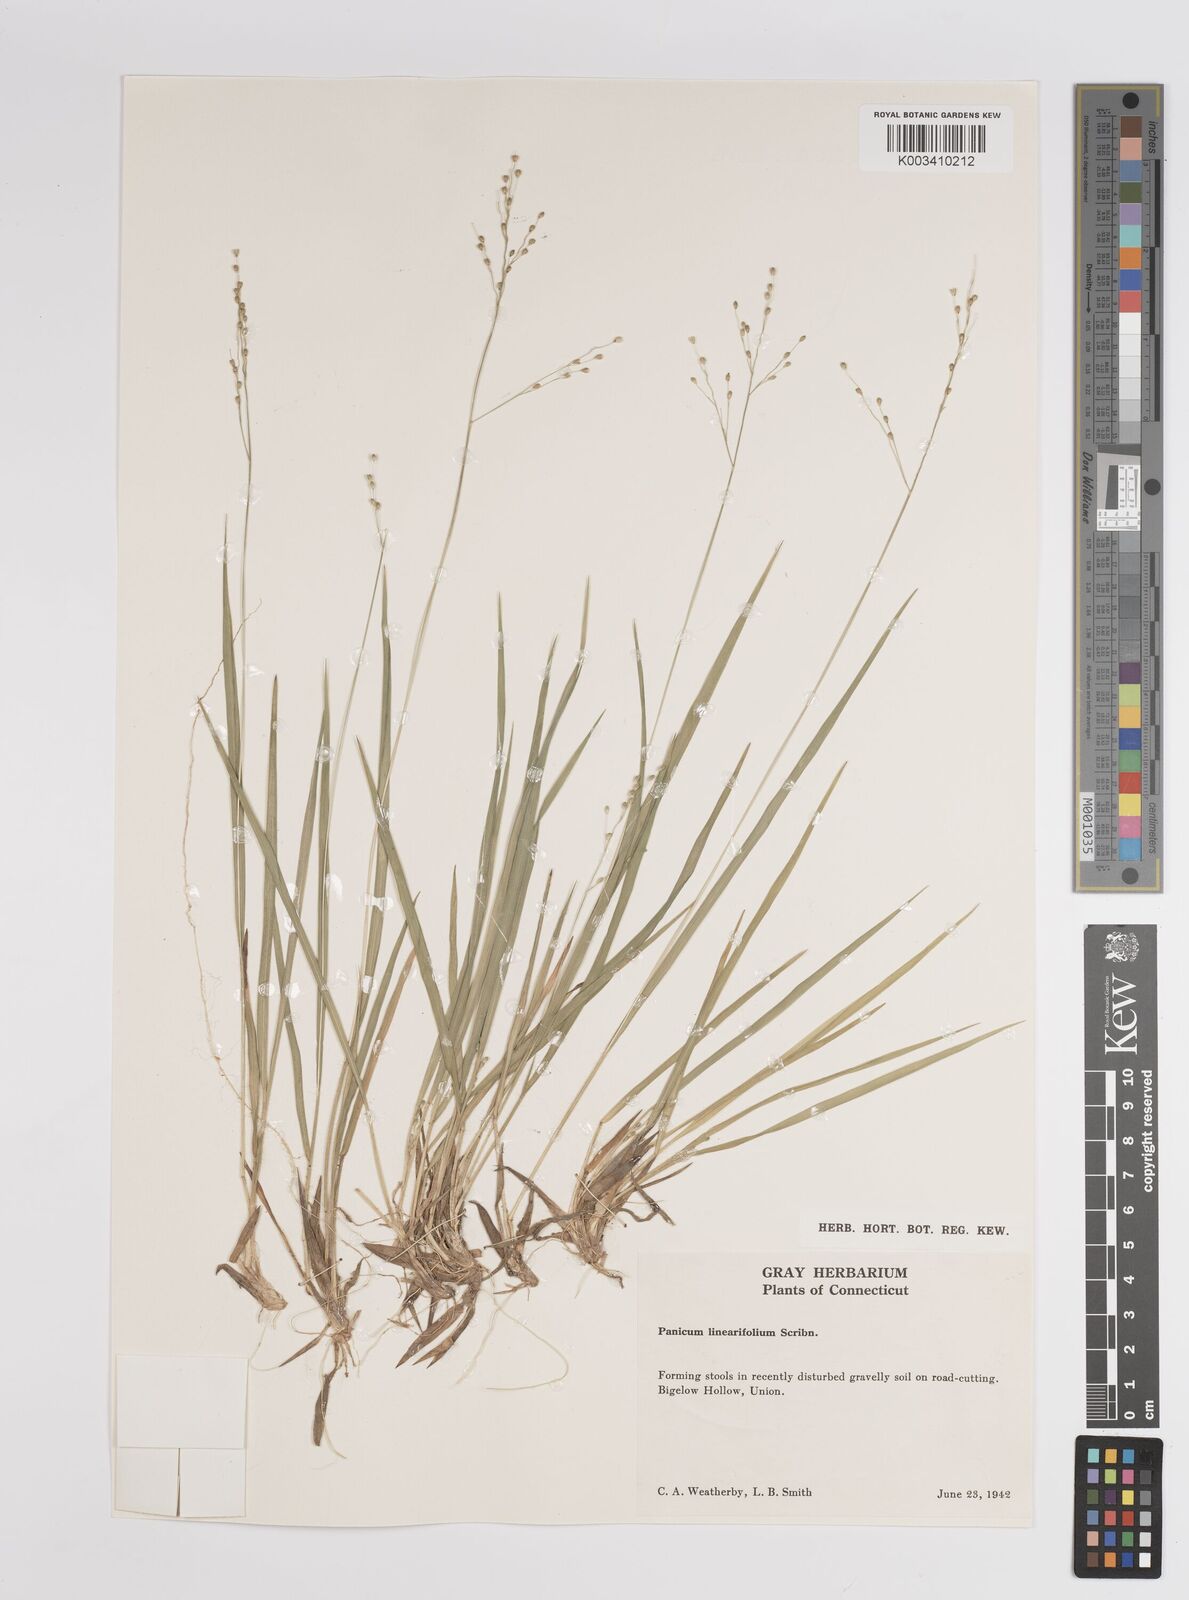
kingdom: Plantae
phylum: Tracheophyta
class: Liliopsida
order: Poales
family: Poaceae
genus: Dichanthelium
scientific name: Dichanthelium linearifolium
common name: Linear-leaved panicgrass
